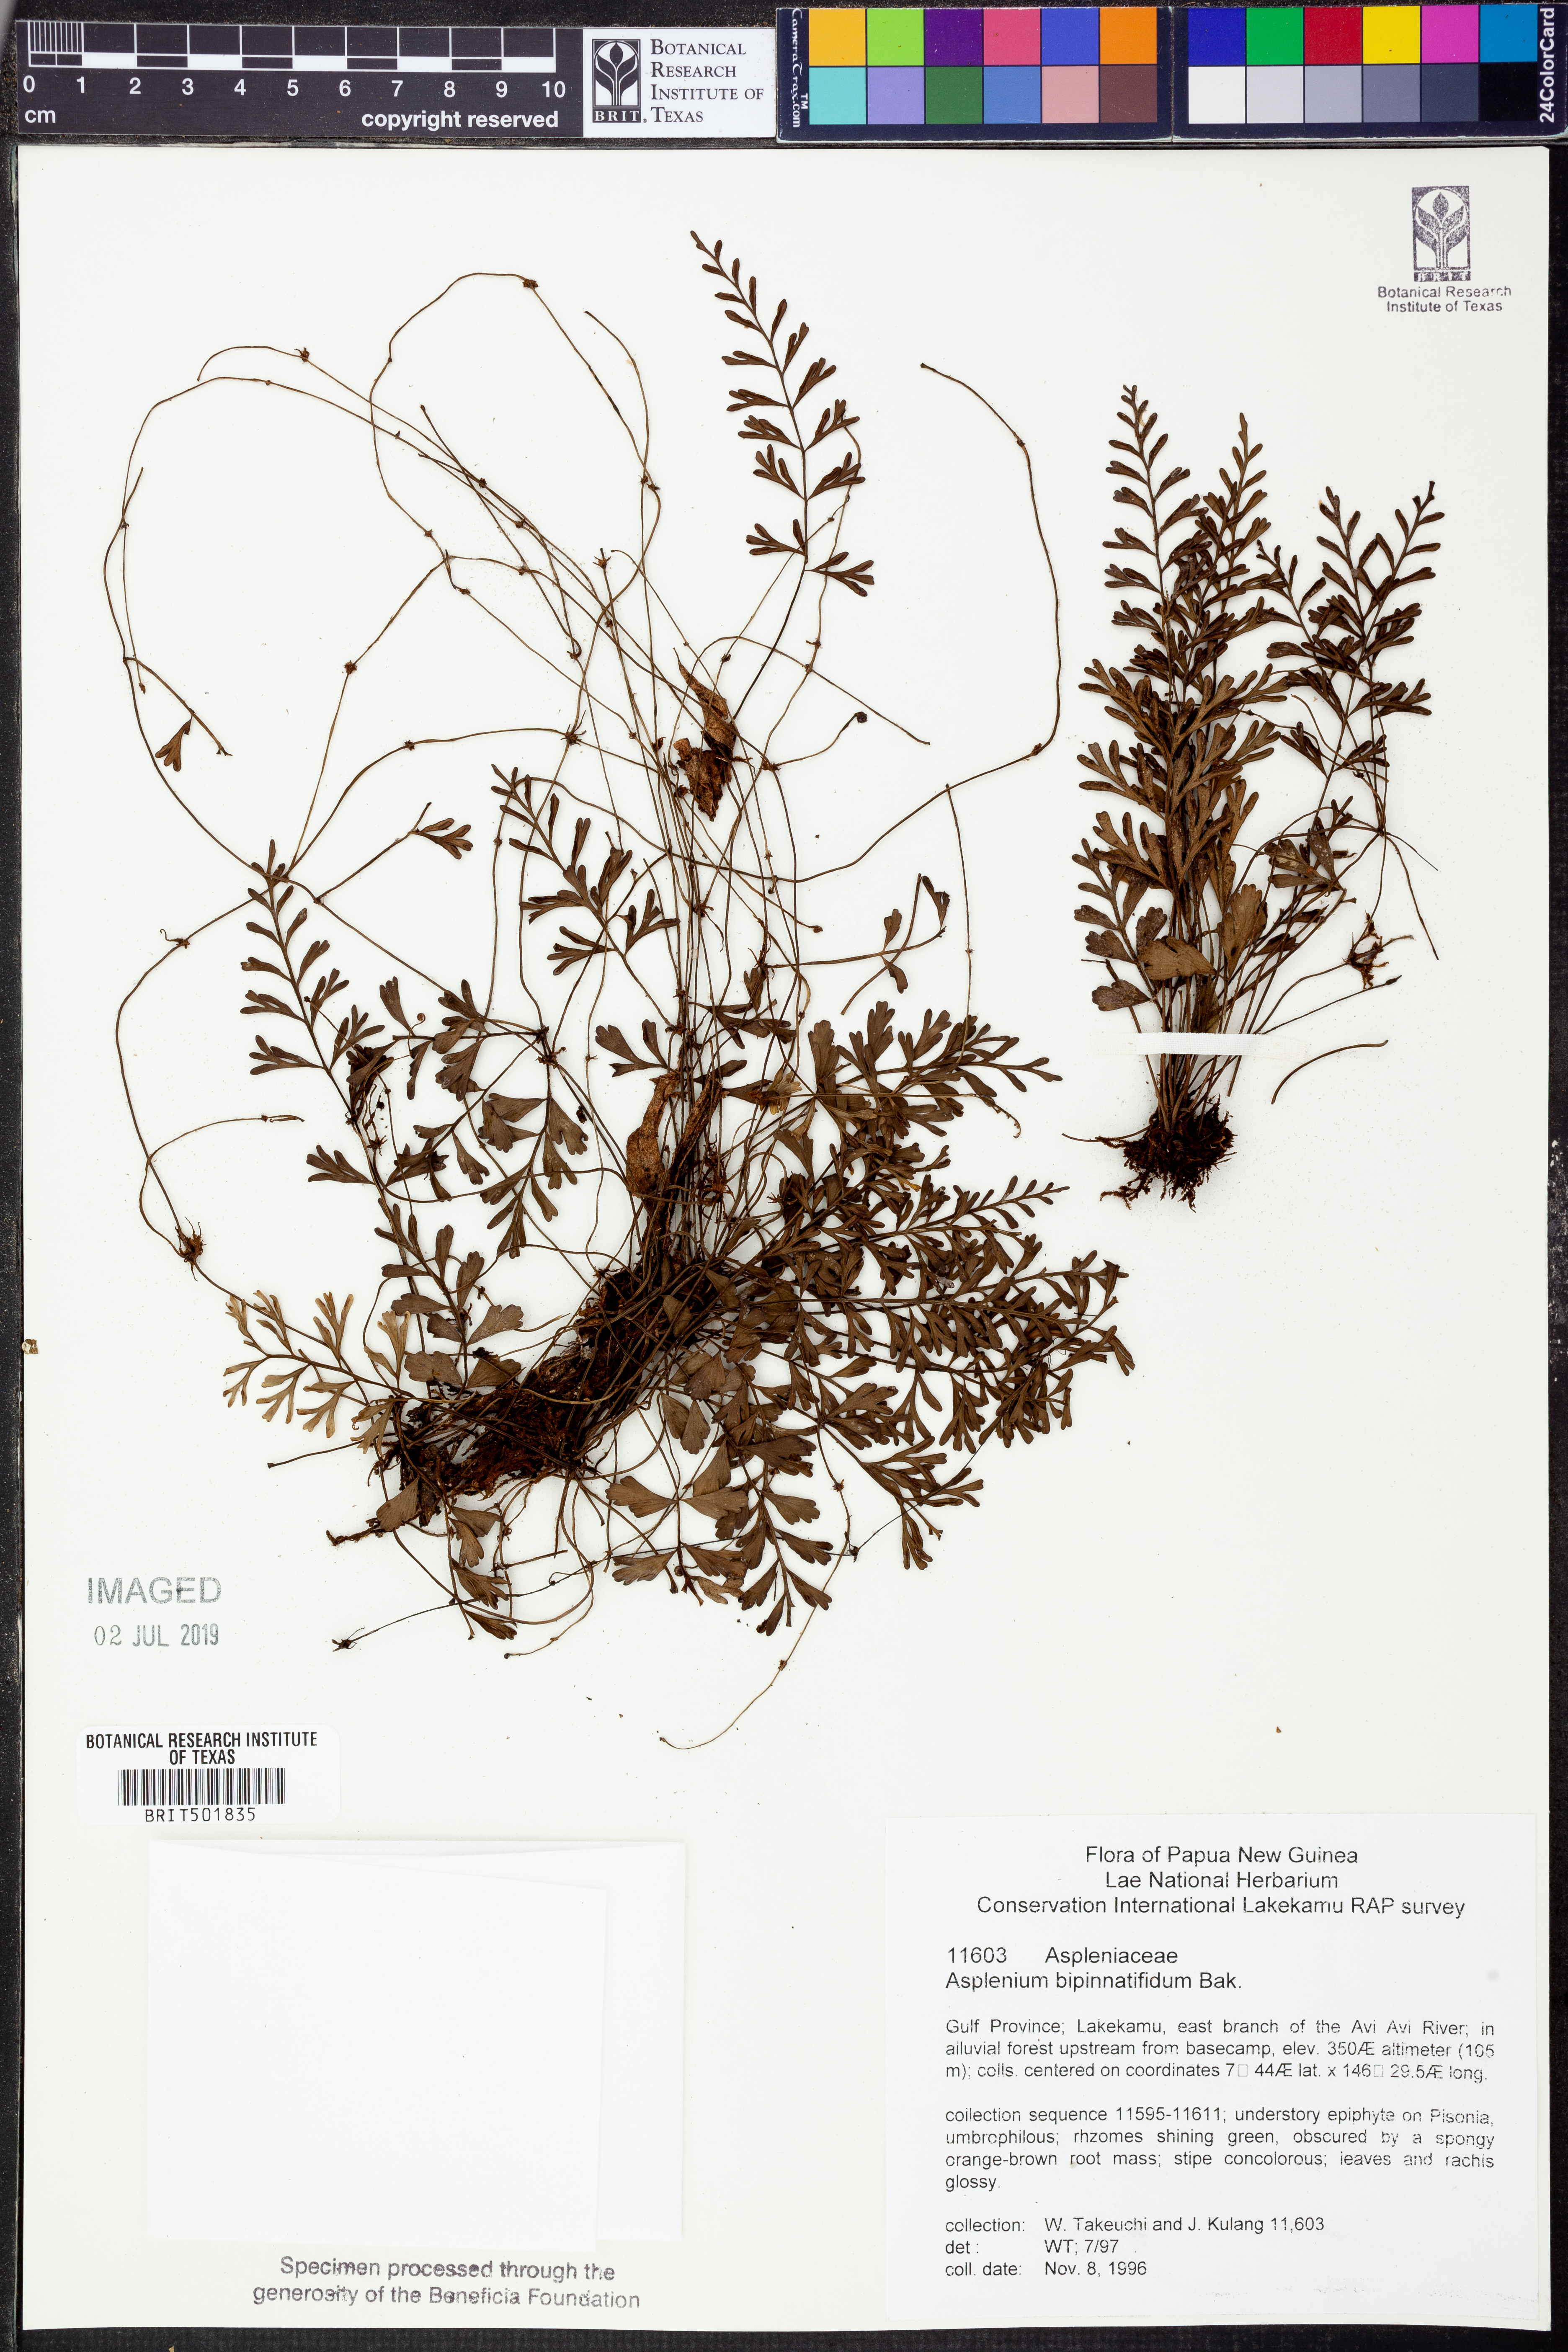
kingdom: Plantae
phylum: Tracheophyta
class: Polypodiopsida
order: Polypodiales
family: Aspleniaceae
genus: Asplenium
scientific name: Asplenium bipinnatifidum
